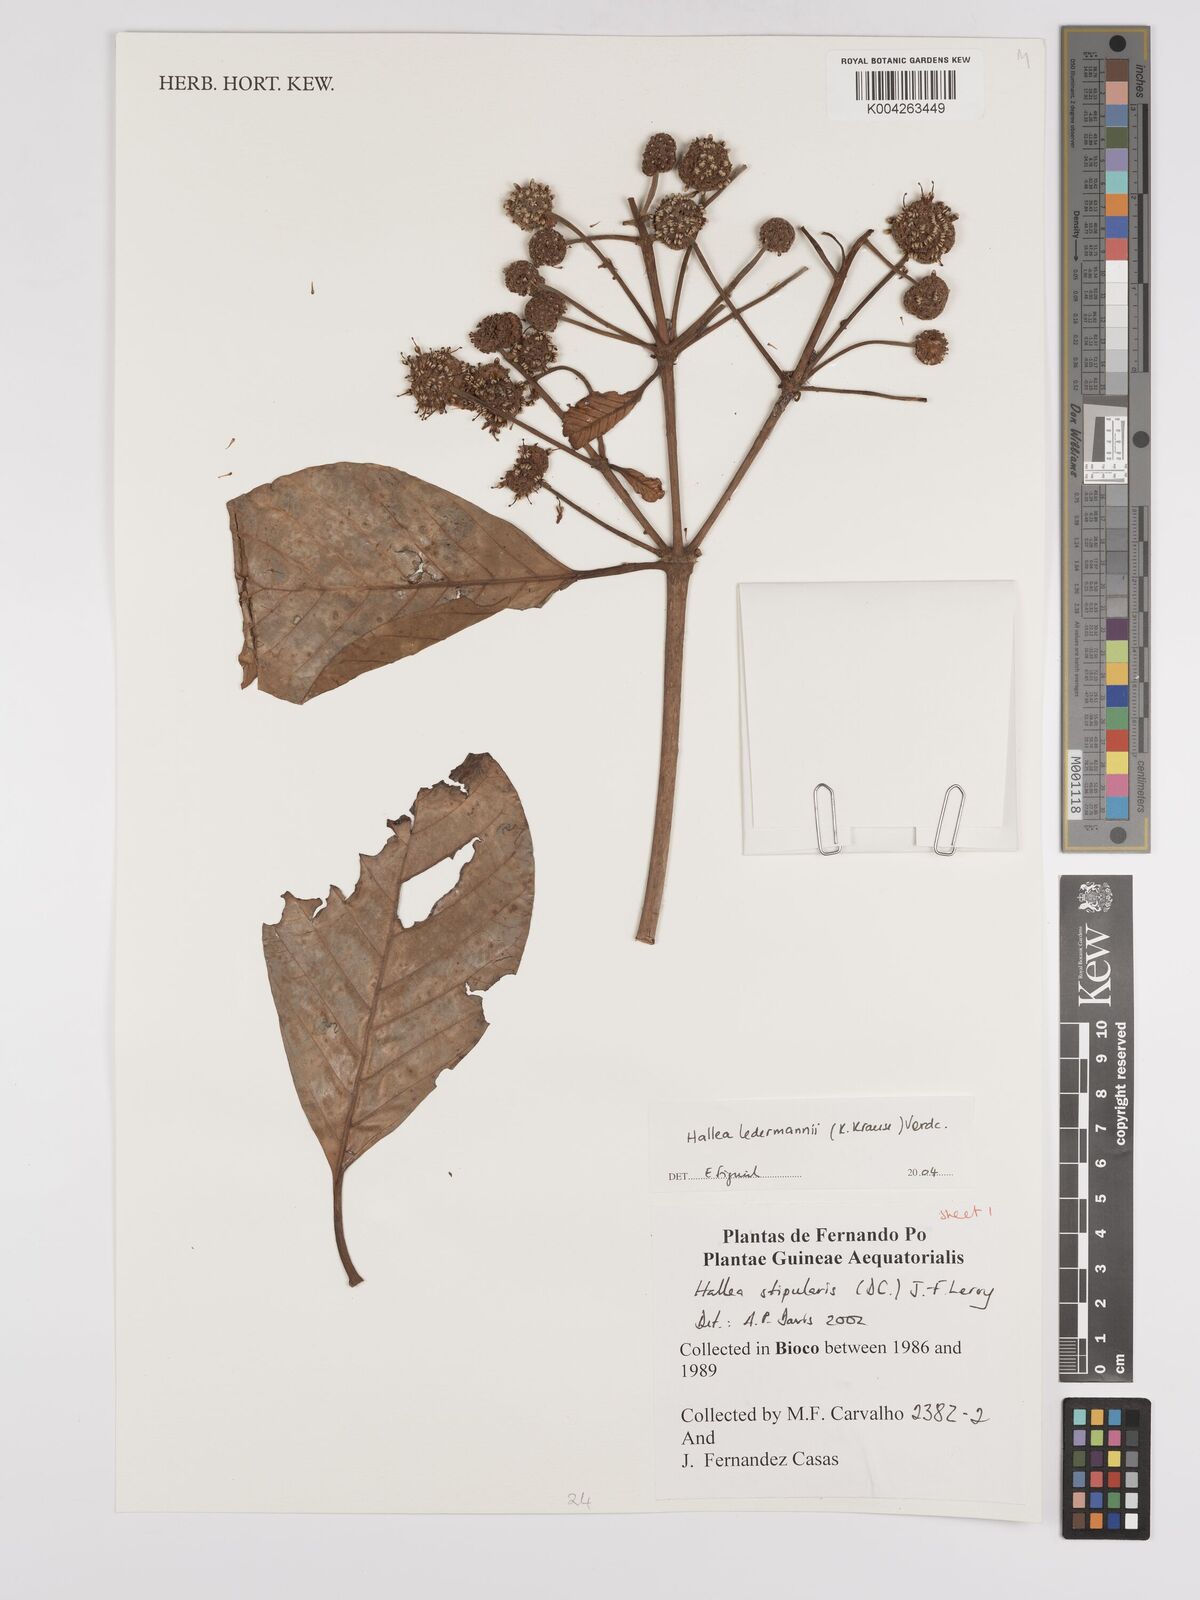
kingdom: Plantae
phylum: Tracheophyta
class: Magnoliopsida
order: Gentianales
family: Rubiaceae
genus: Mitragyna
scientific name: Mitragyna stipulosa
